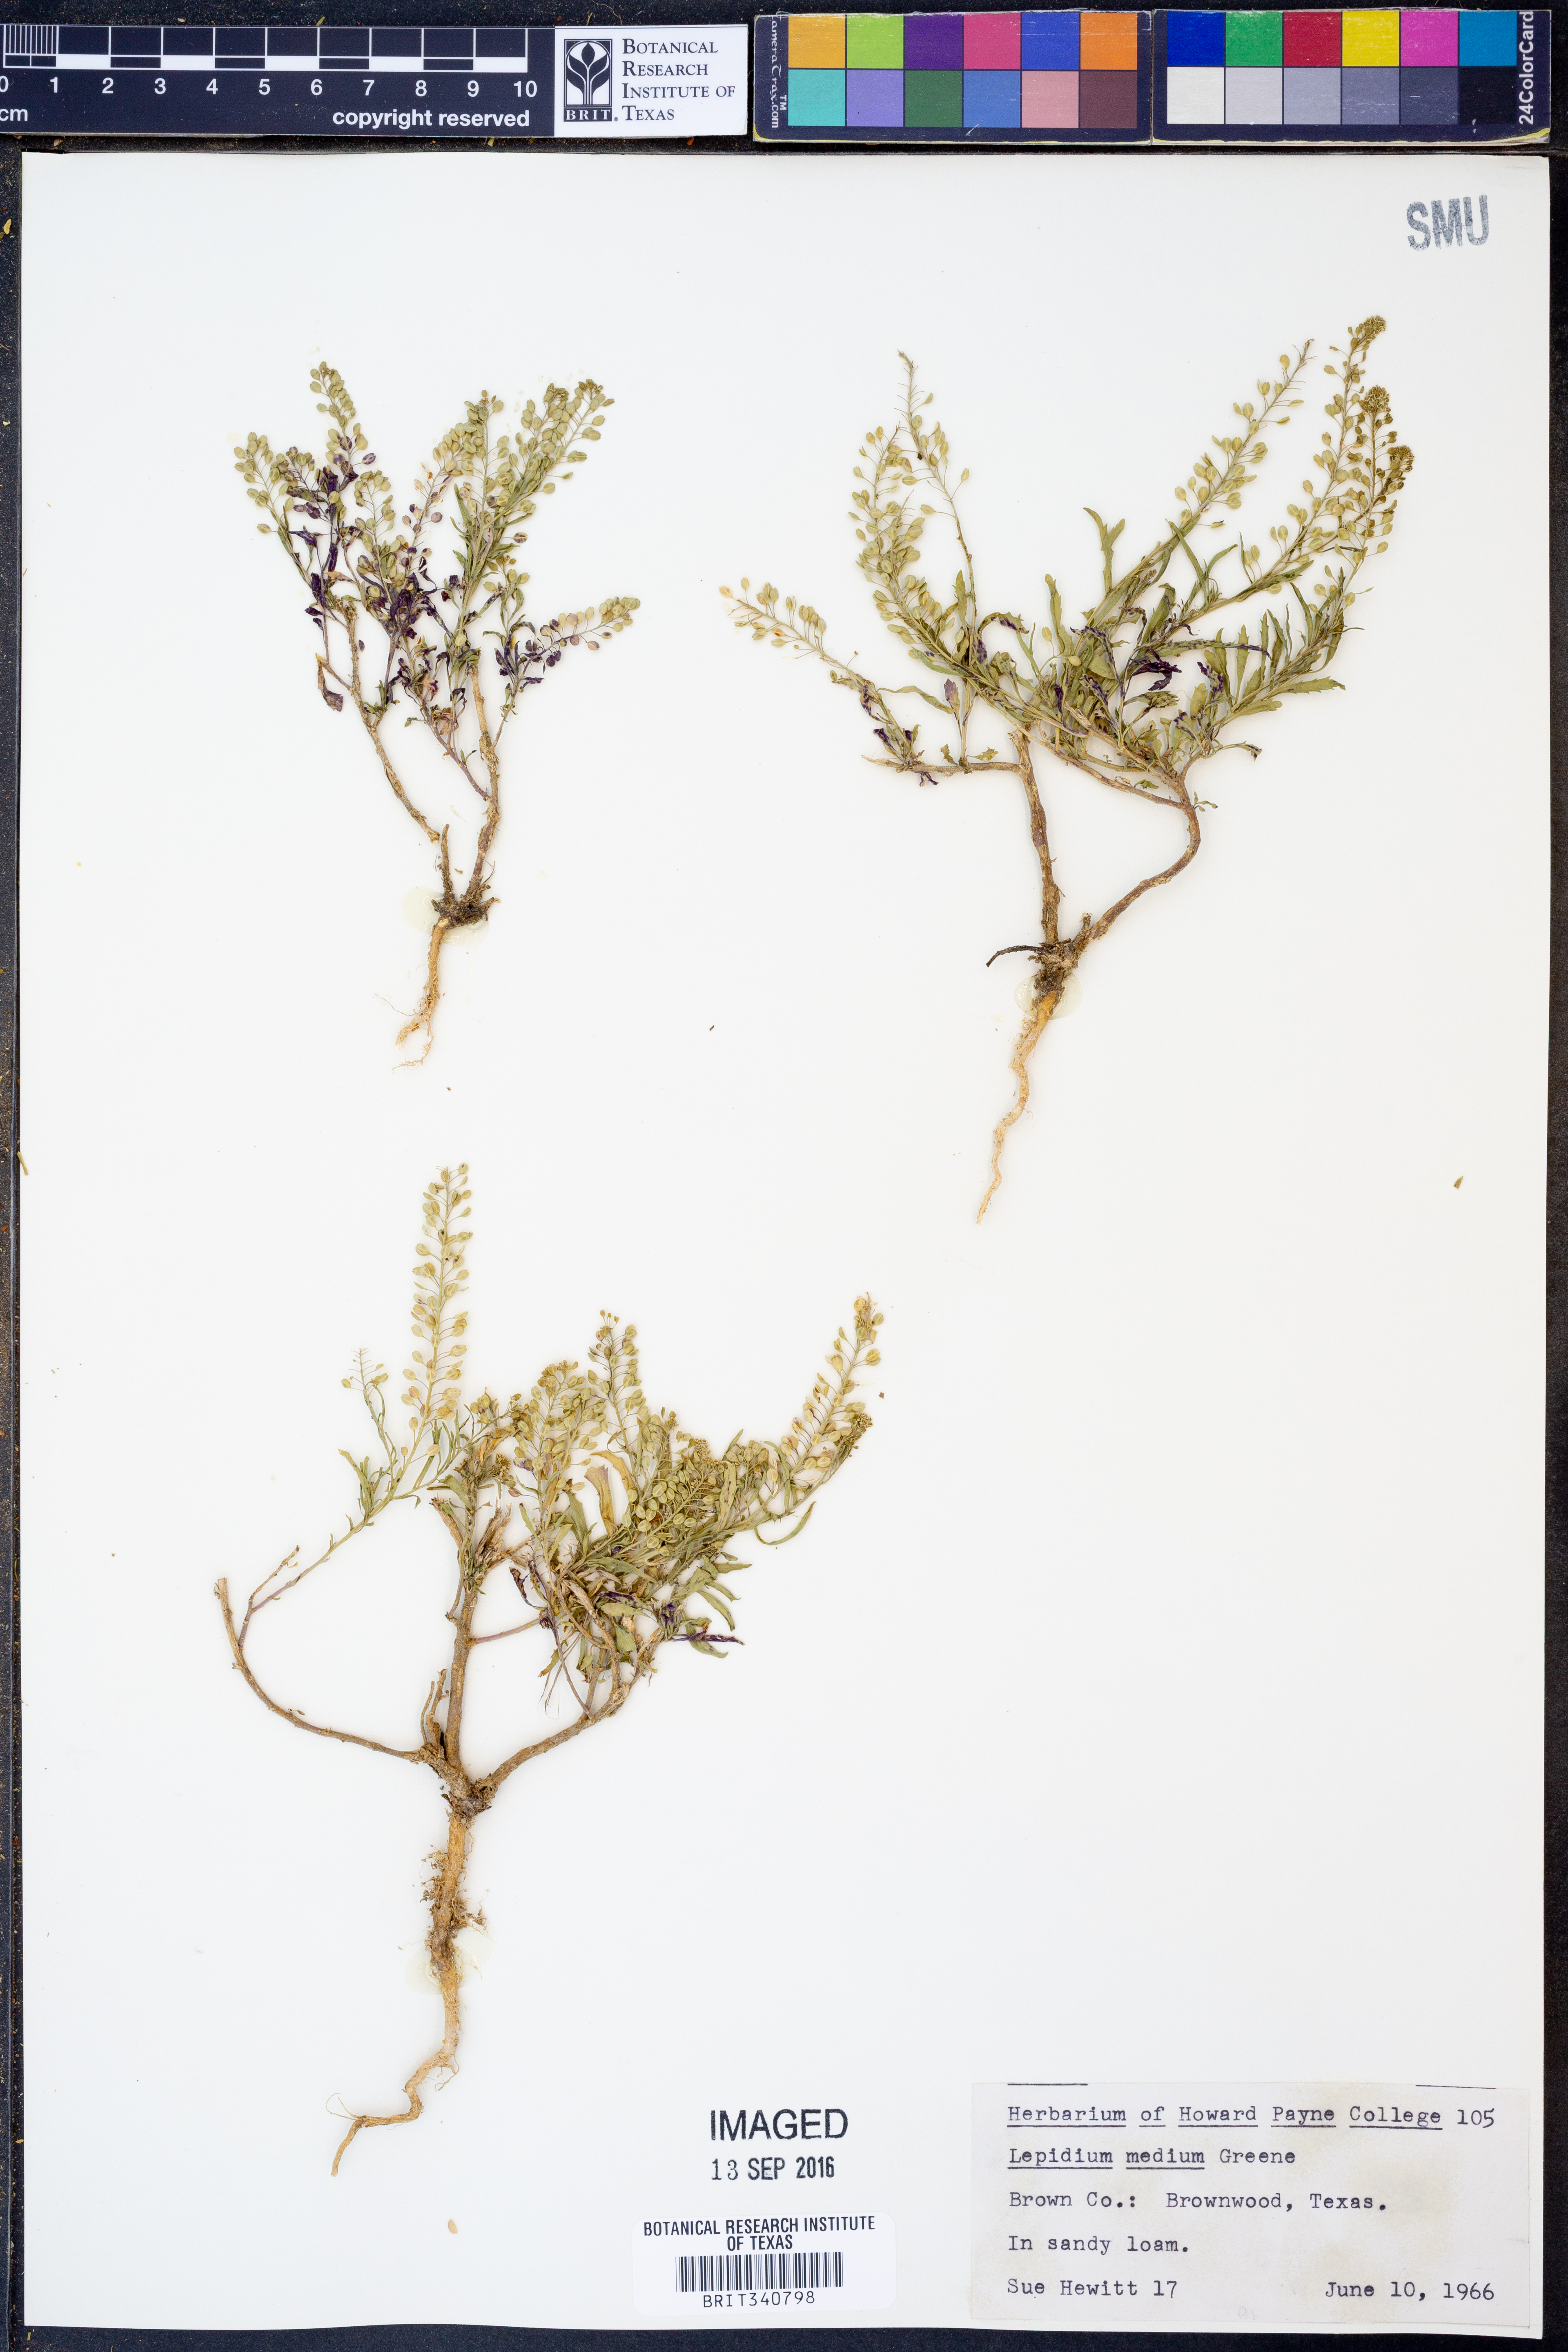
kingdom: Plantae
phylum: Tracheophyta
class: Magnoliopsida
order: Brassicales
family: Brassicaceae
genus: Lepidium
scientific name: Lepidium virginicum
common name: Least pepperwort
